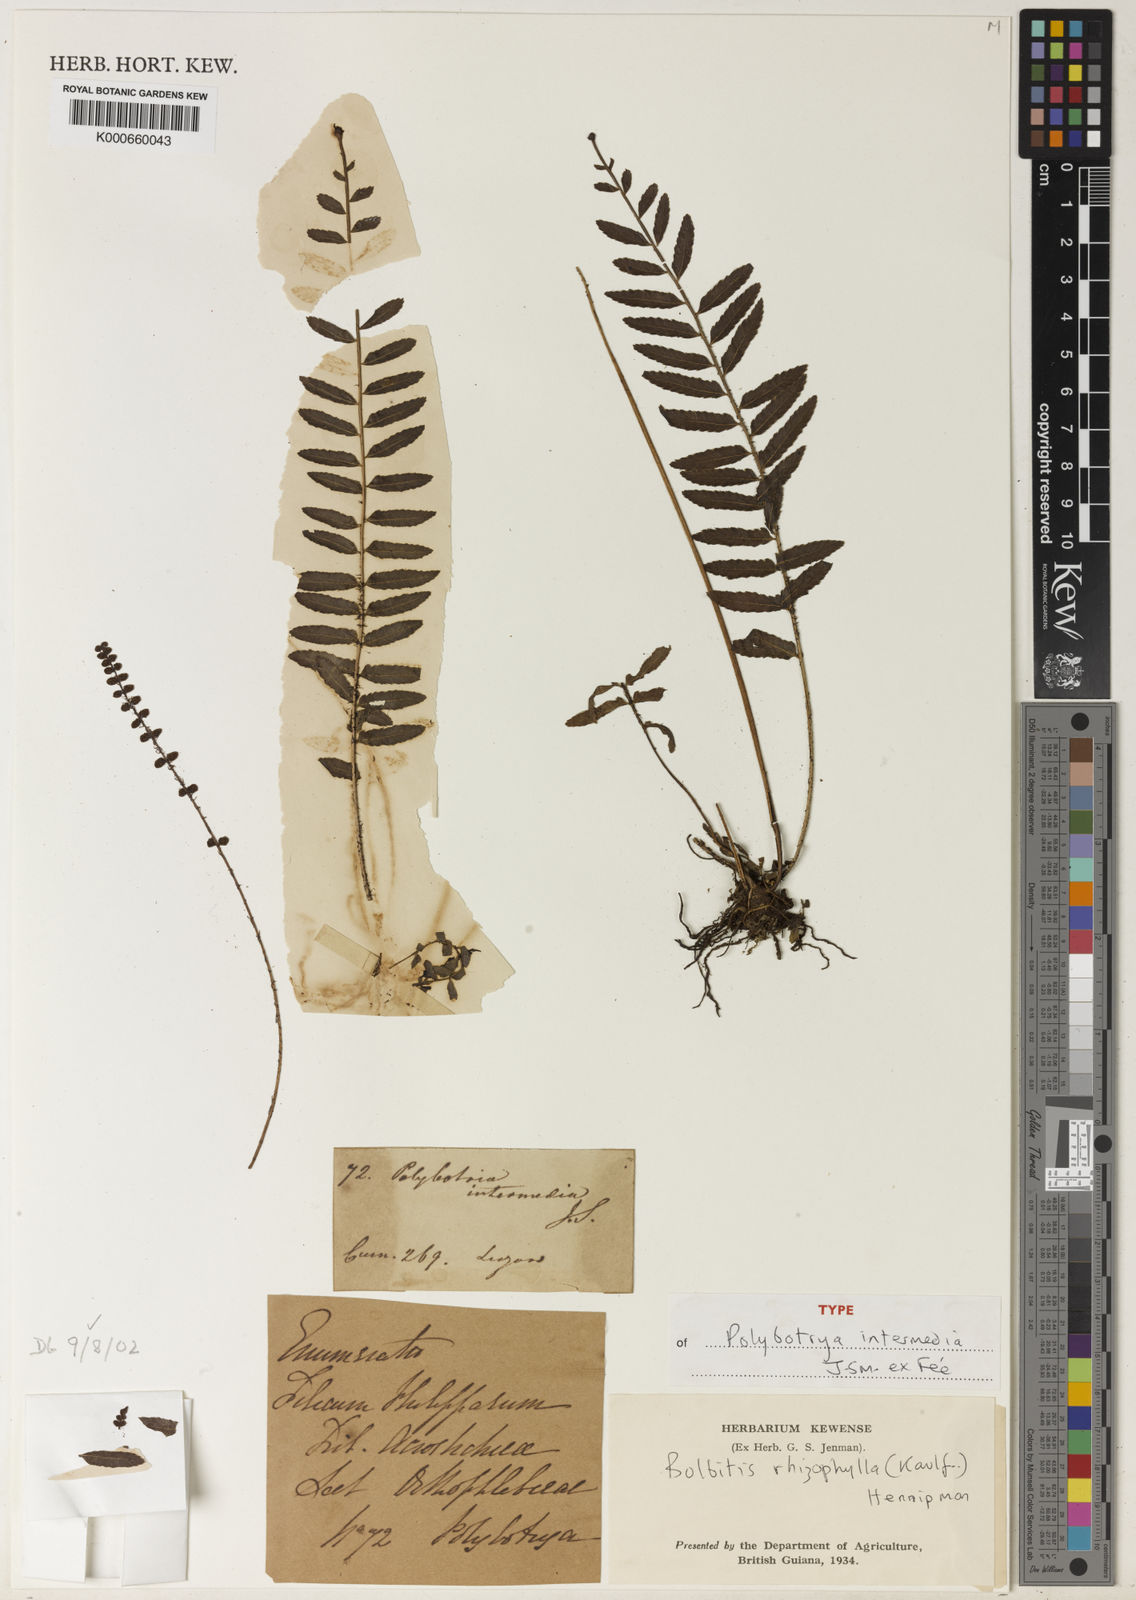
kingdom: Plantae
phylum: Tracheophyta
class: Polypodiopsida
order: Polypodiales
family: Dryopteridaceae
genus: Bolbitis
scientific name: Bolbitis rhizophylla
